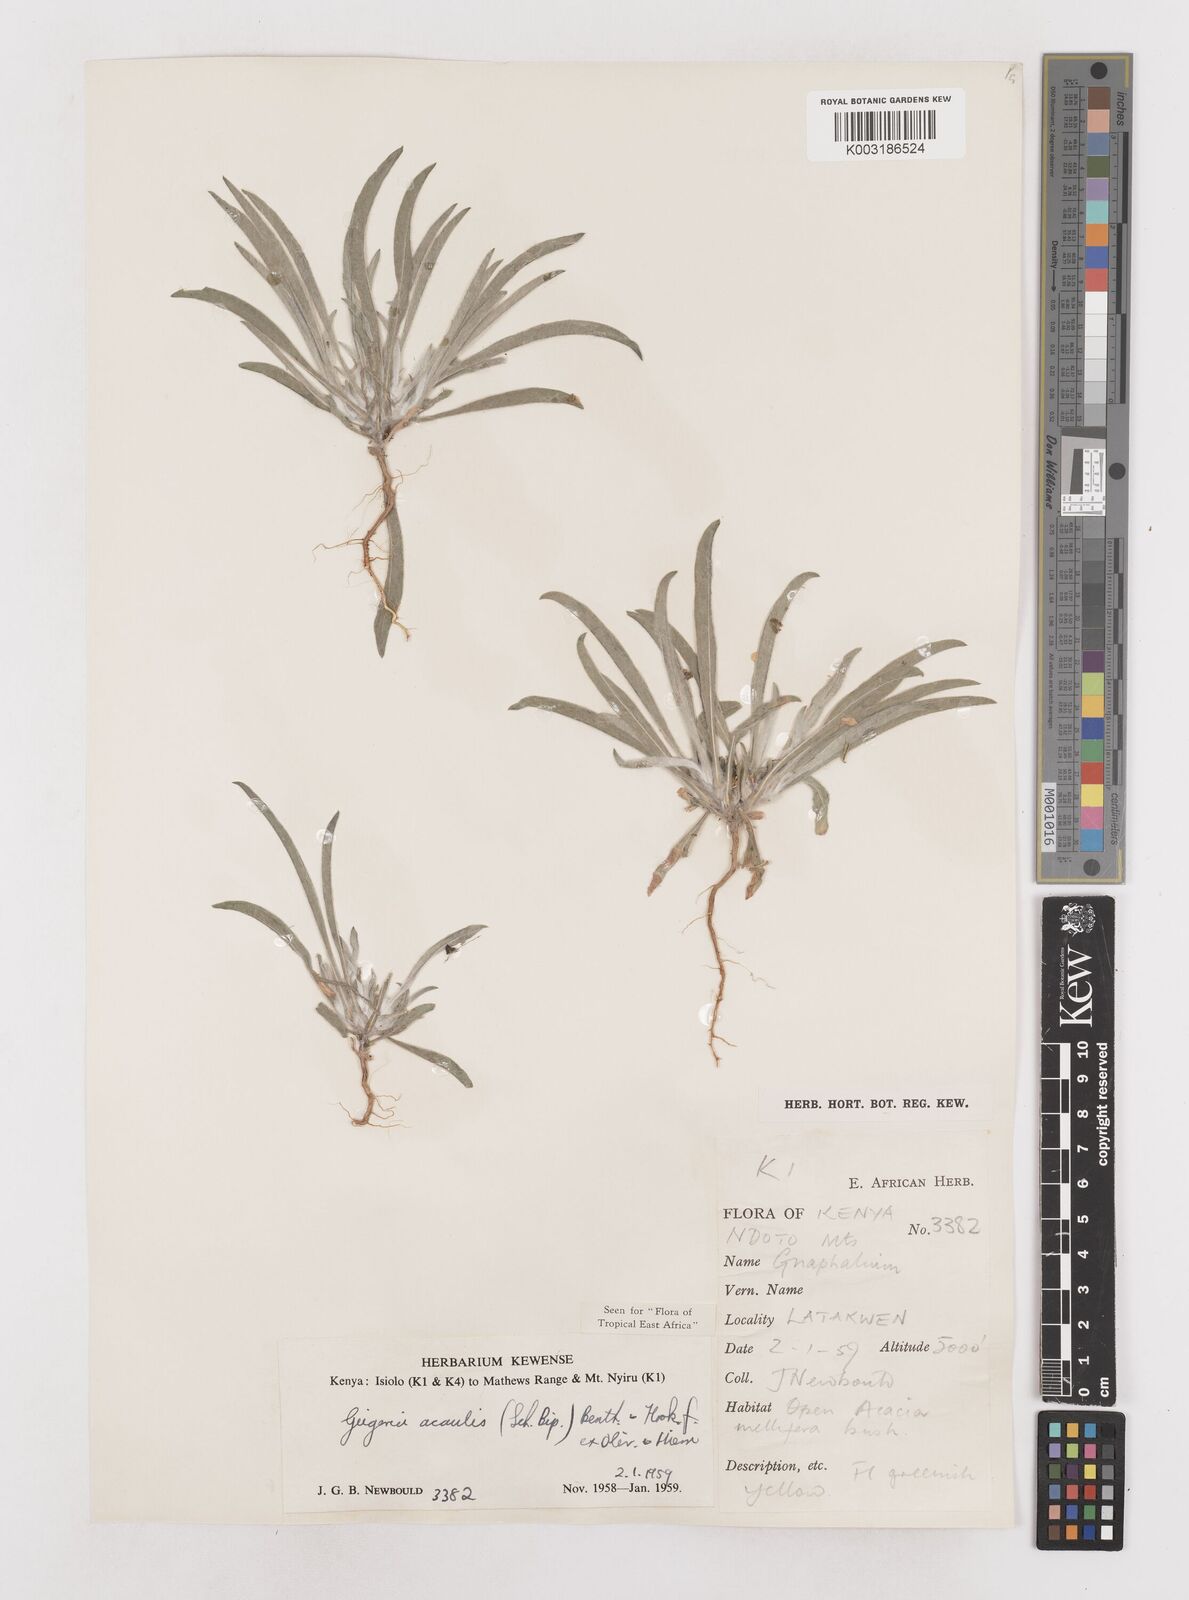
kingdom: Plantae
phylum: Tracheophyta
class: Magnoliopsida
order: Asterales
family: Asteraceae
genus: Geigeria
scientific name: Geigeria acaulis
